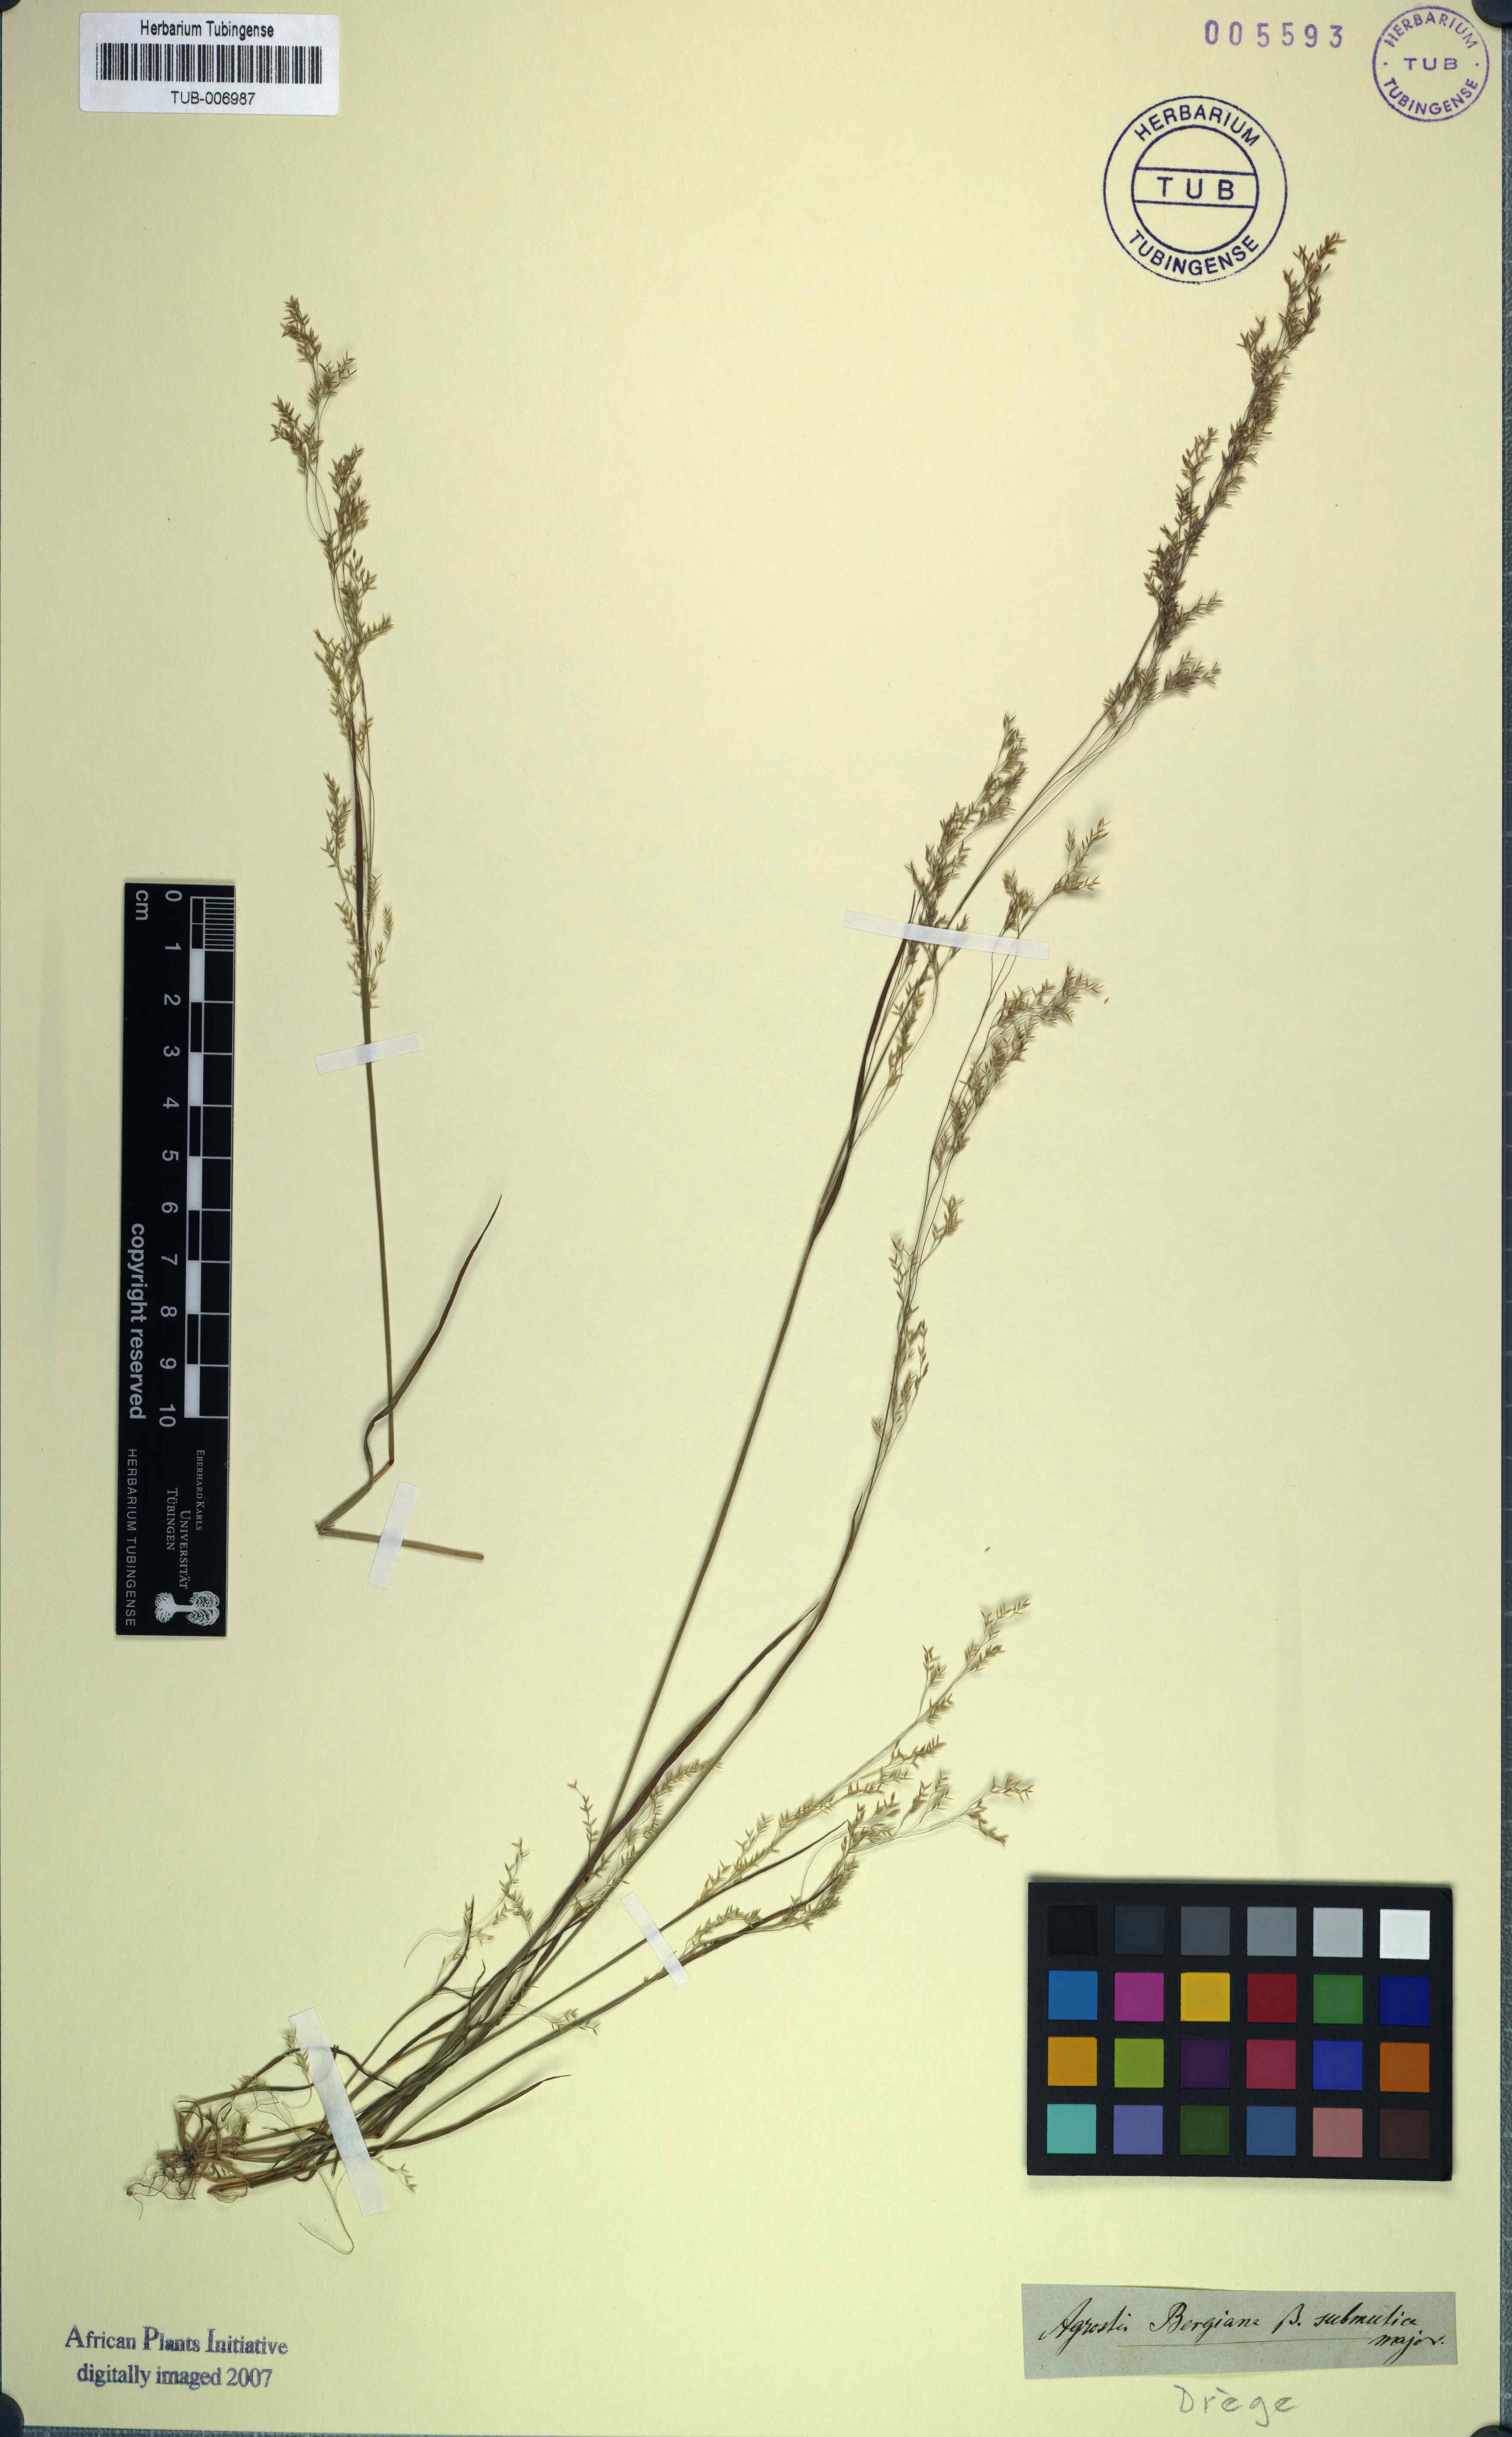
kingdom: Plantae
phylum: Tracheophyta
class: Liliopsida
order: Poales
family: Poaceae
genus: Agrostis
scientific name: Agrostis bergiana
